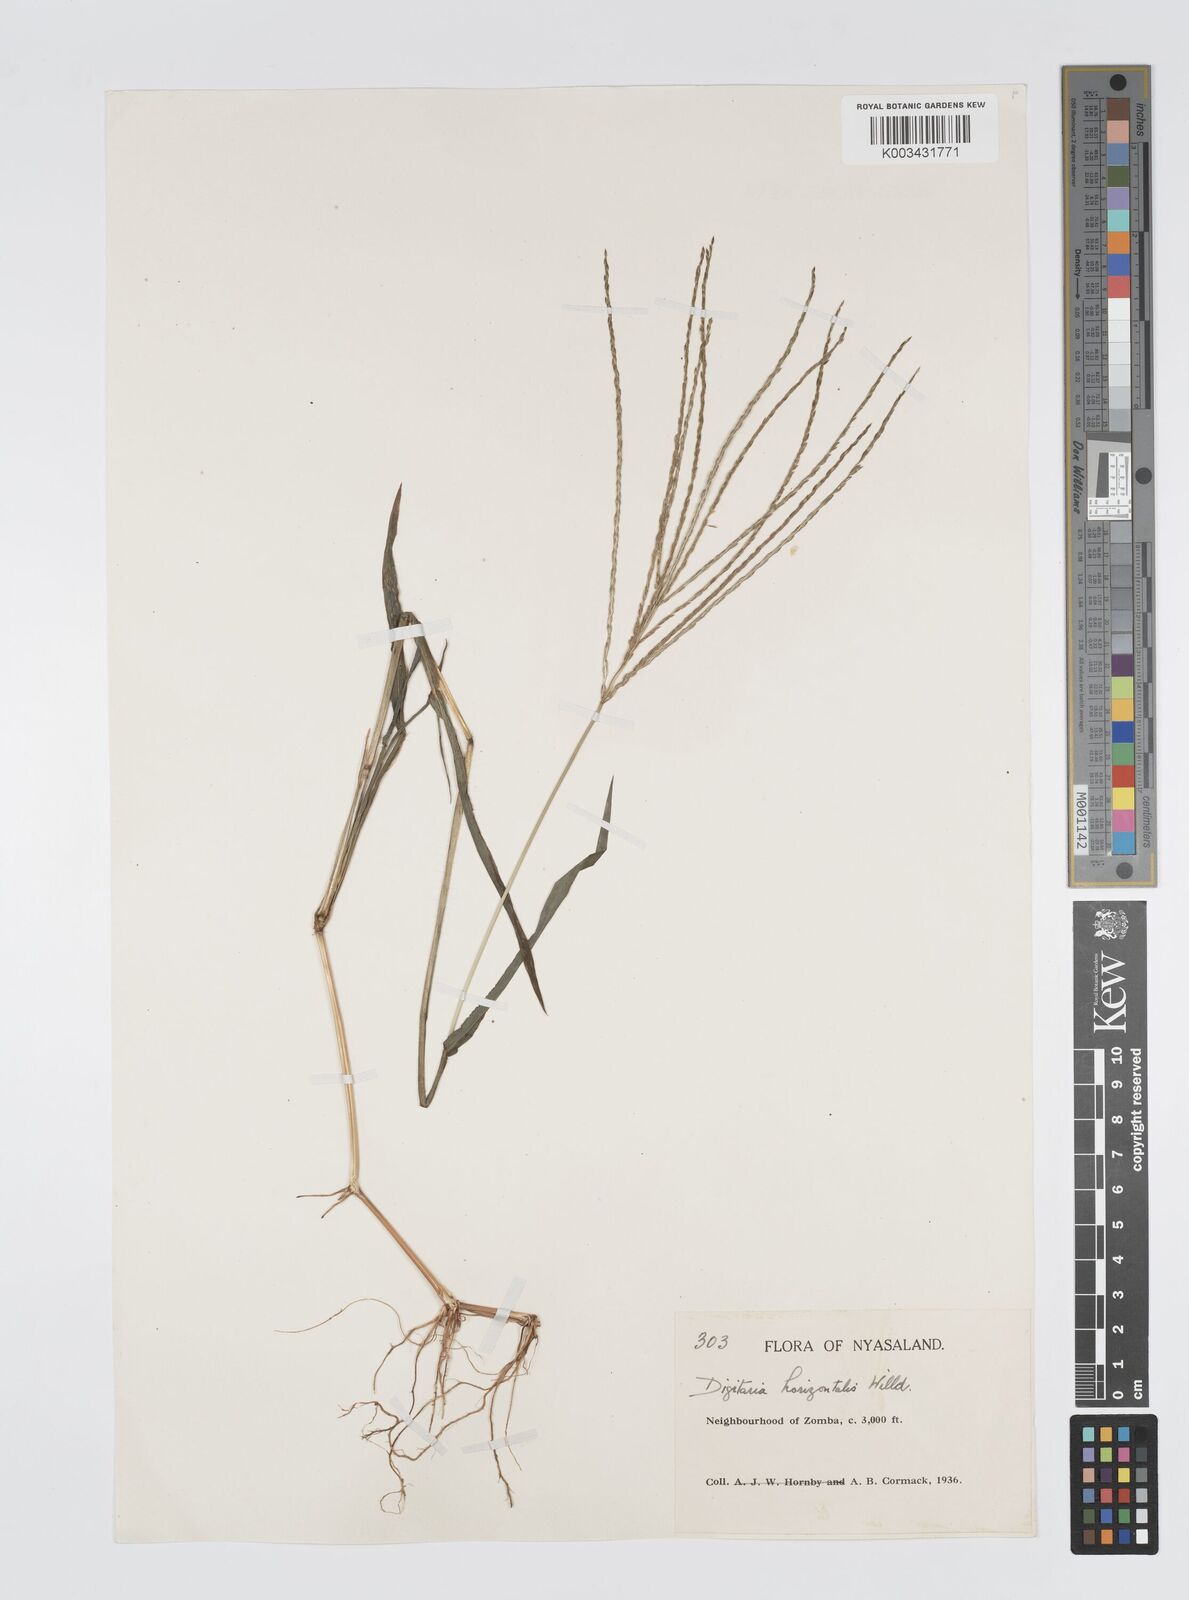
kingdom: Plantae
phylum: Tracheophyta
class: Liliopsida
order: Poales
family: Poaceae
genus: Digitaria
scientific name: Digitaria nuda
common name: Naked crabgrass
